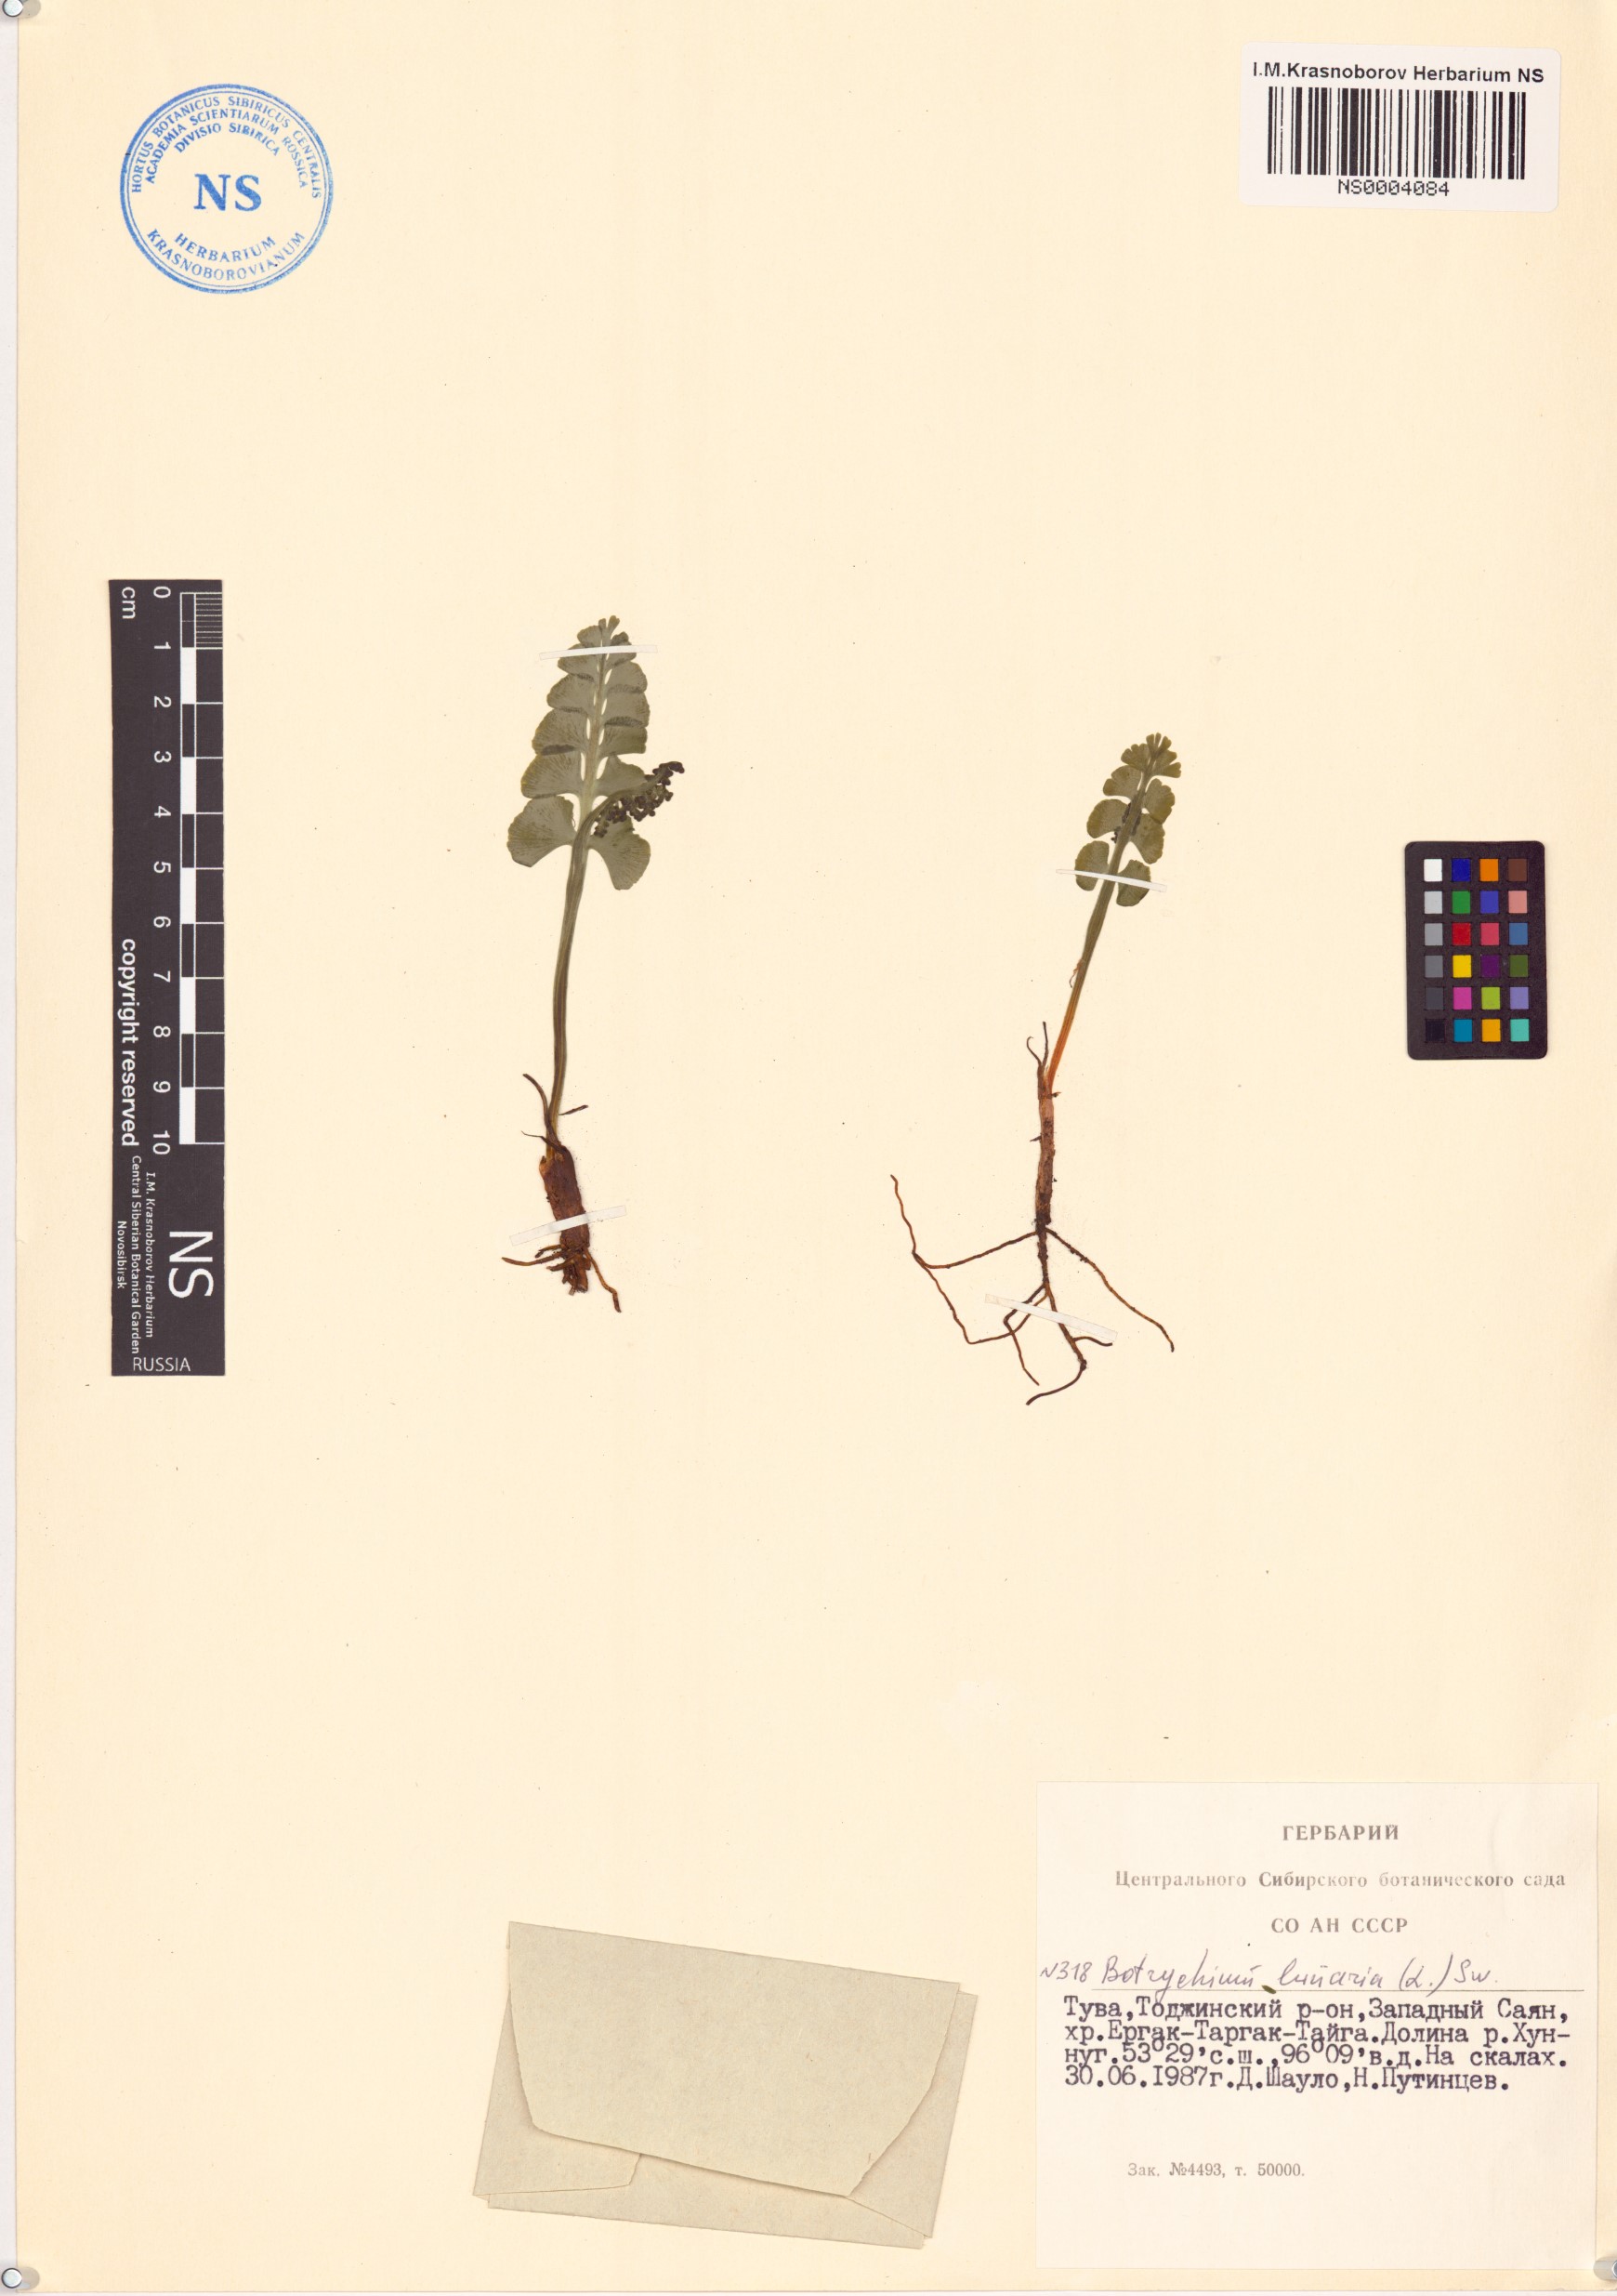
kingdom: Plantae
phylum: Tracheophyta
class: Polypodiopsida
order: Ophioglossales
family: Ophioglossaceae
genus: Botrychium
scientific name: Botrychium lunaria
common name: Moonwort
